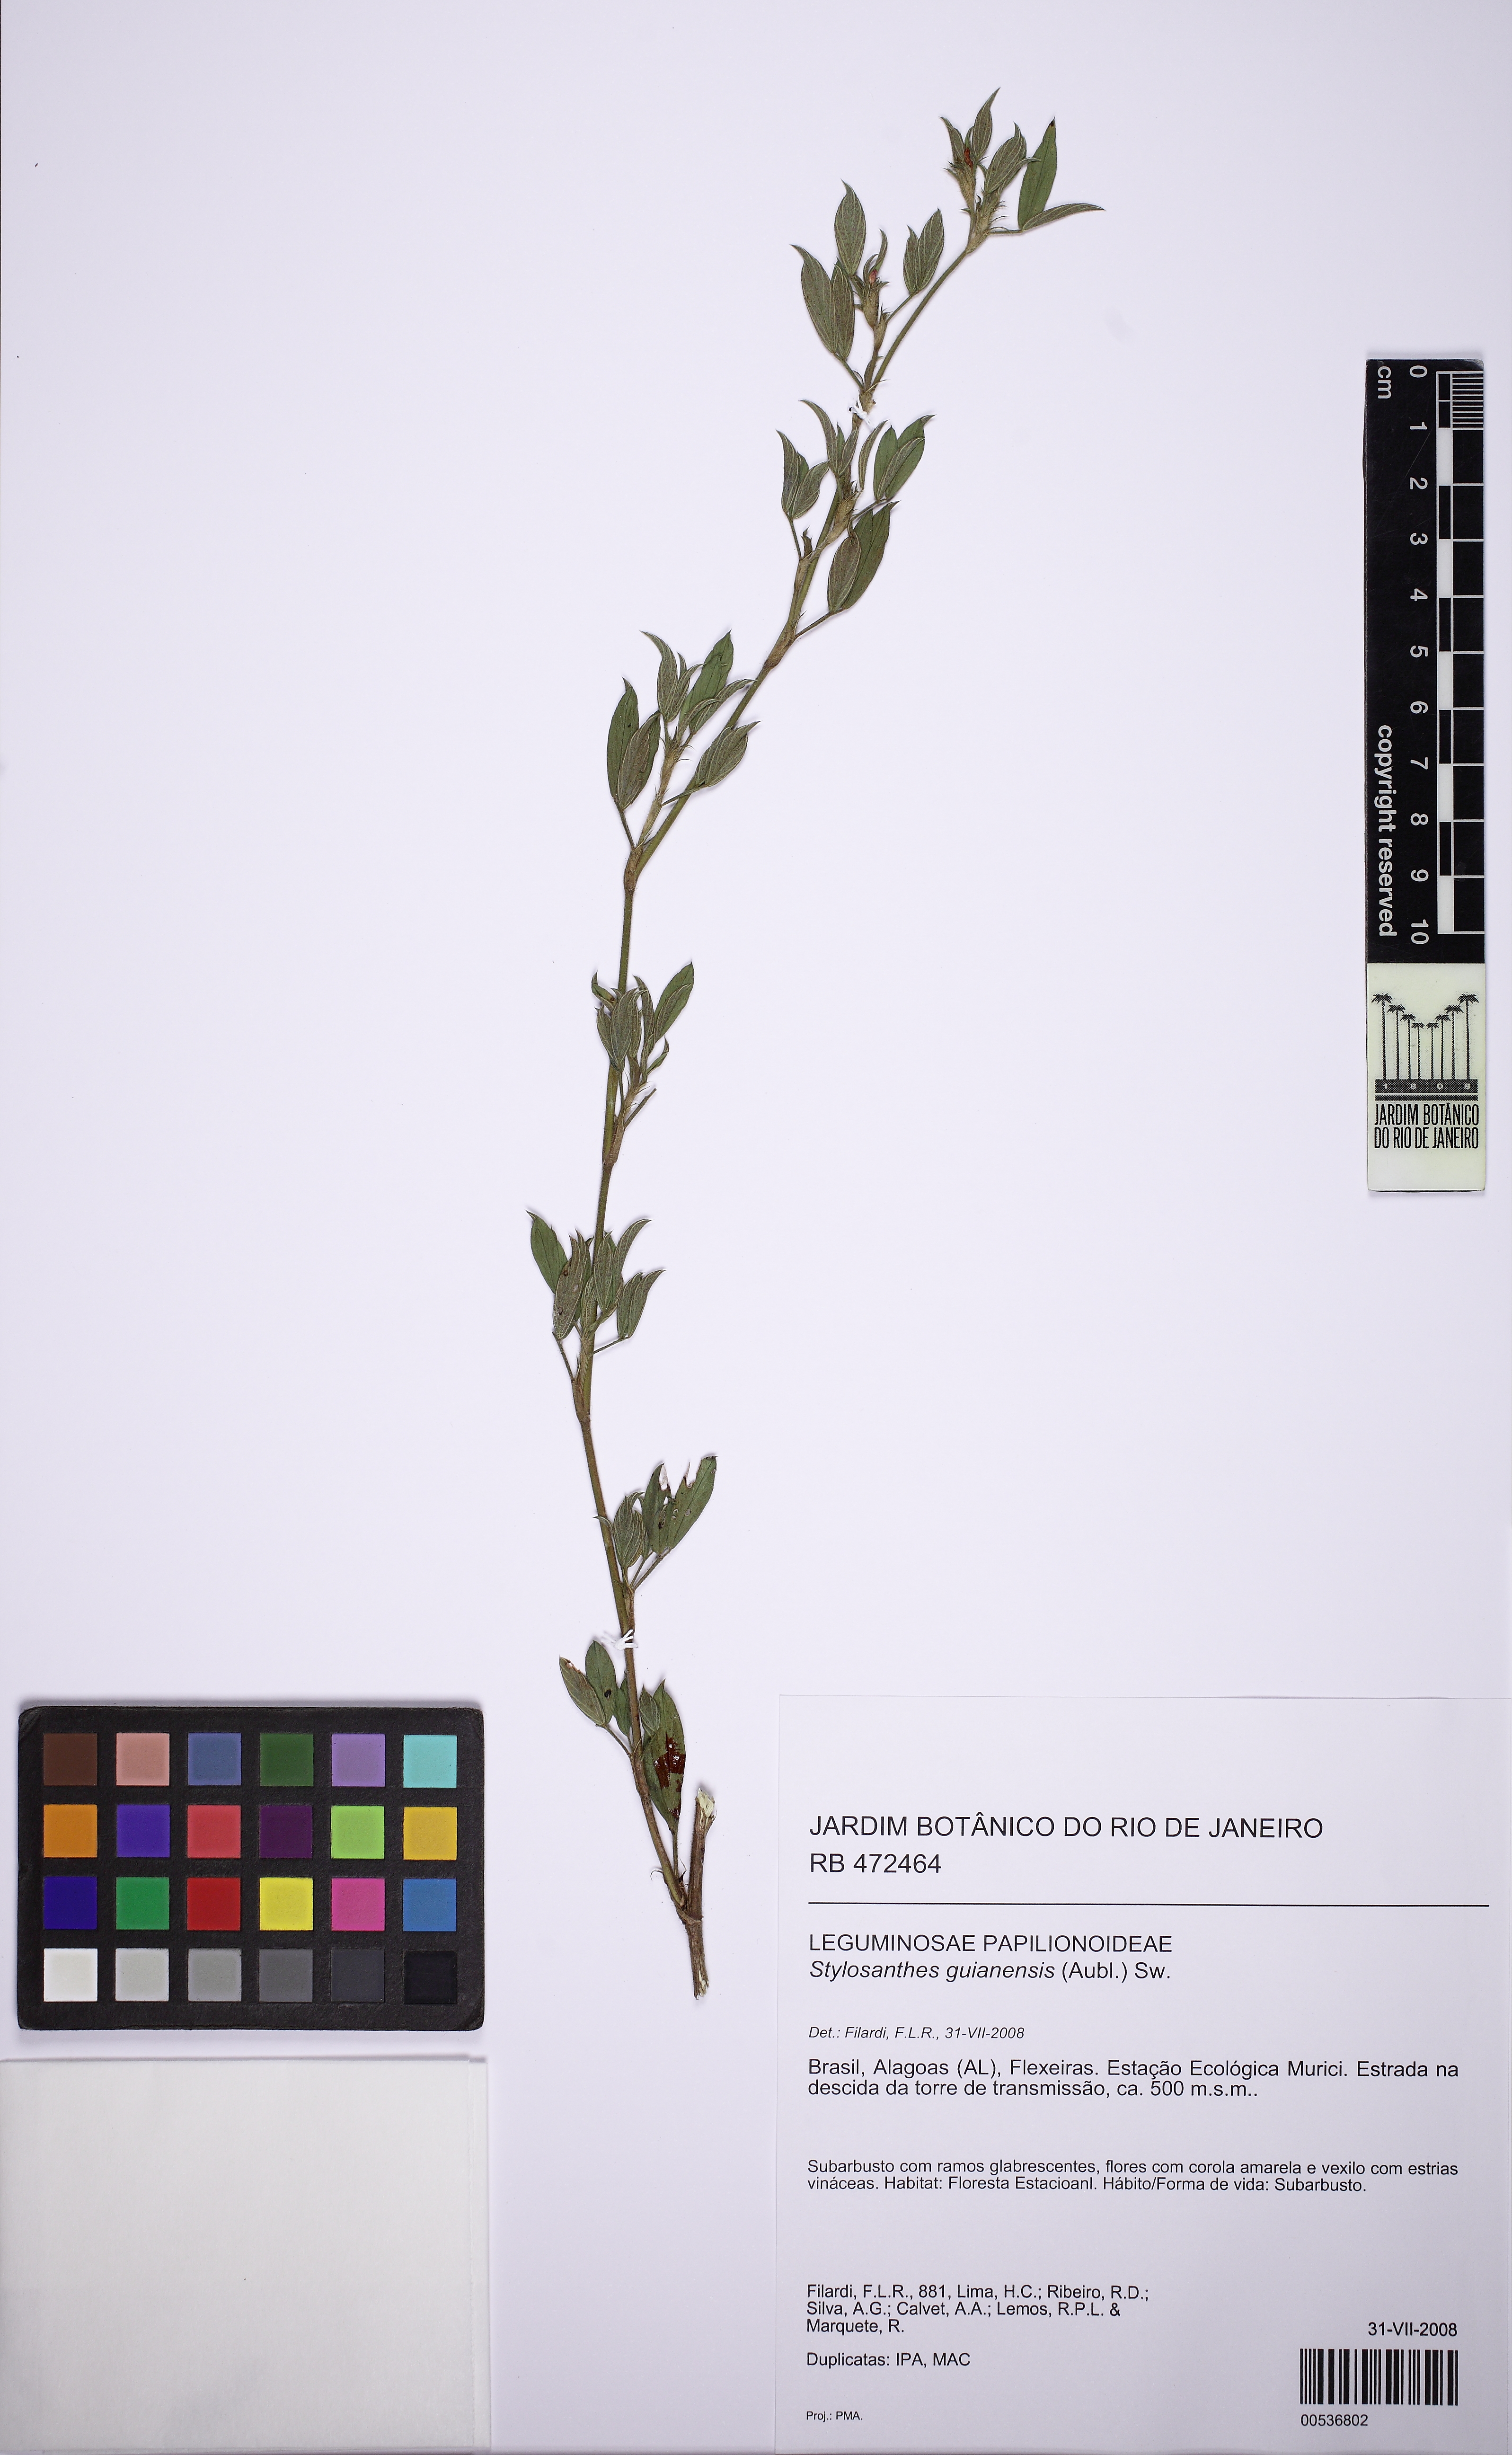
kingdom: Plantae
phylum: Tracheophyta
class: Magnoliopsida
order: Fabales
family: Fabaceae
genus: Stylosanthes
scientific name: Stylosanthes guianensis
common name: Pencil flower
